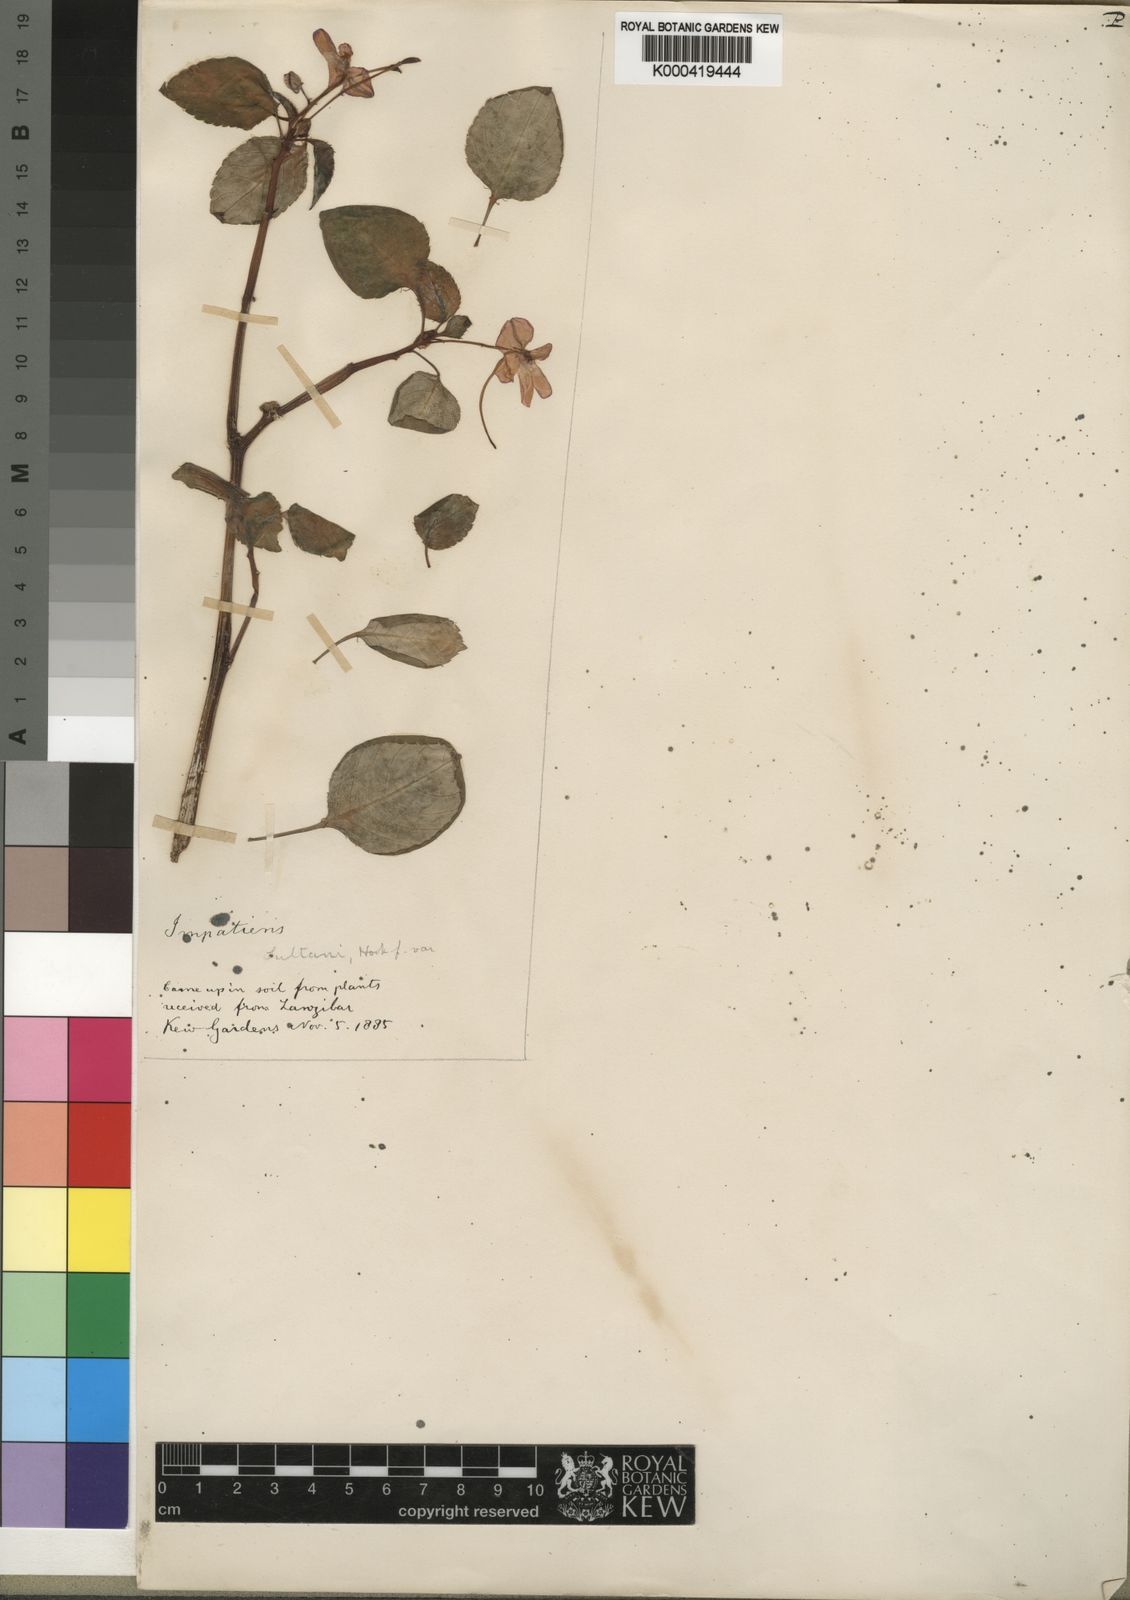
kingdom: Plantae
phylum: Tracheophyta
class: Magnoliopsida
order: Ericales
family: Balsaminaceae
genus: Impatiens
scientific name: Impatiens walleriana
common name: Buzzy lizzy
